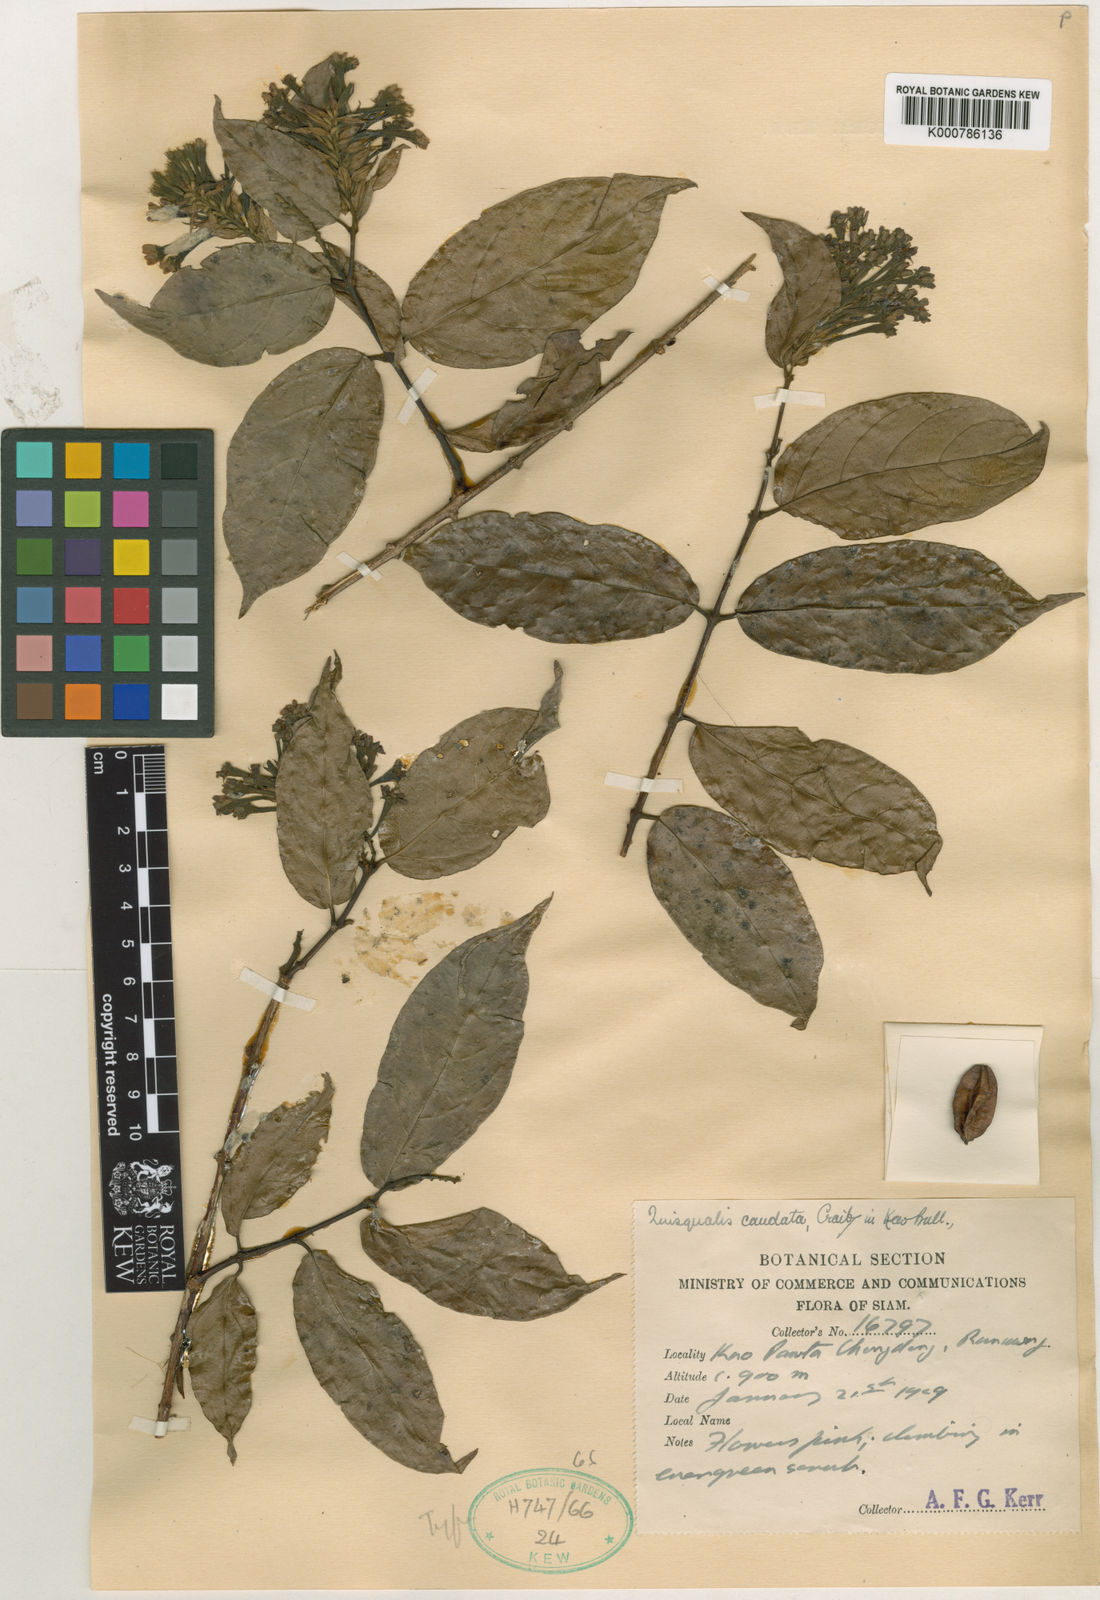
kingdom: Plantae
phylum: Tracheophyta
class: Magnoliopsida
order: Myrtales
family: Combretaceae
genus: Combretum
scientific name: Combretum caudatum
